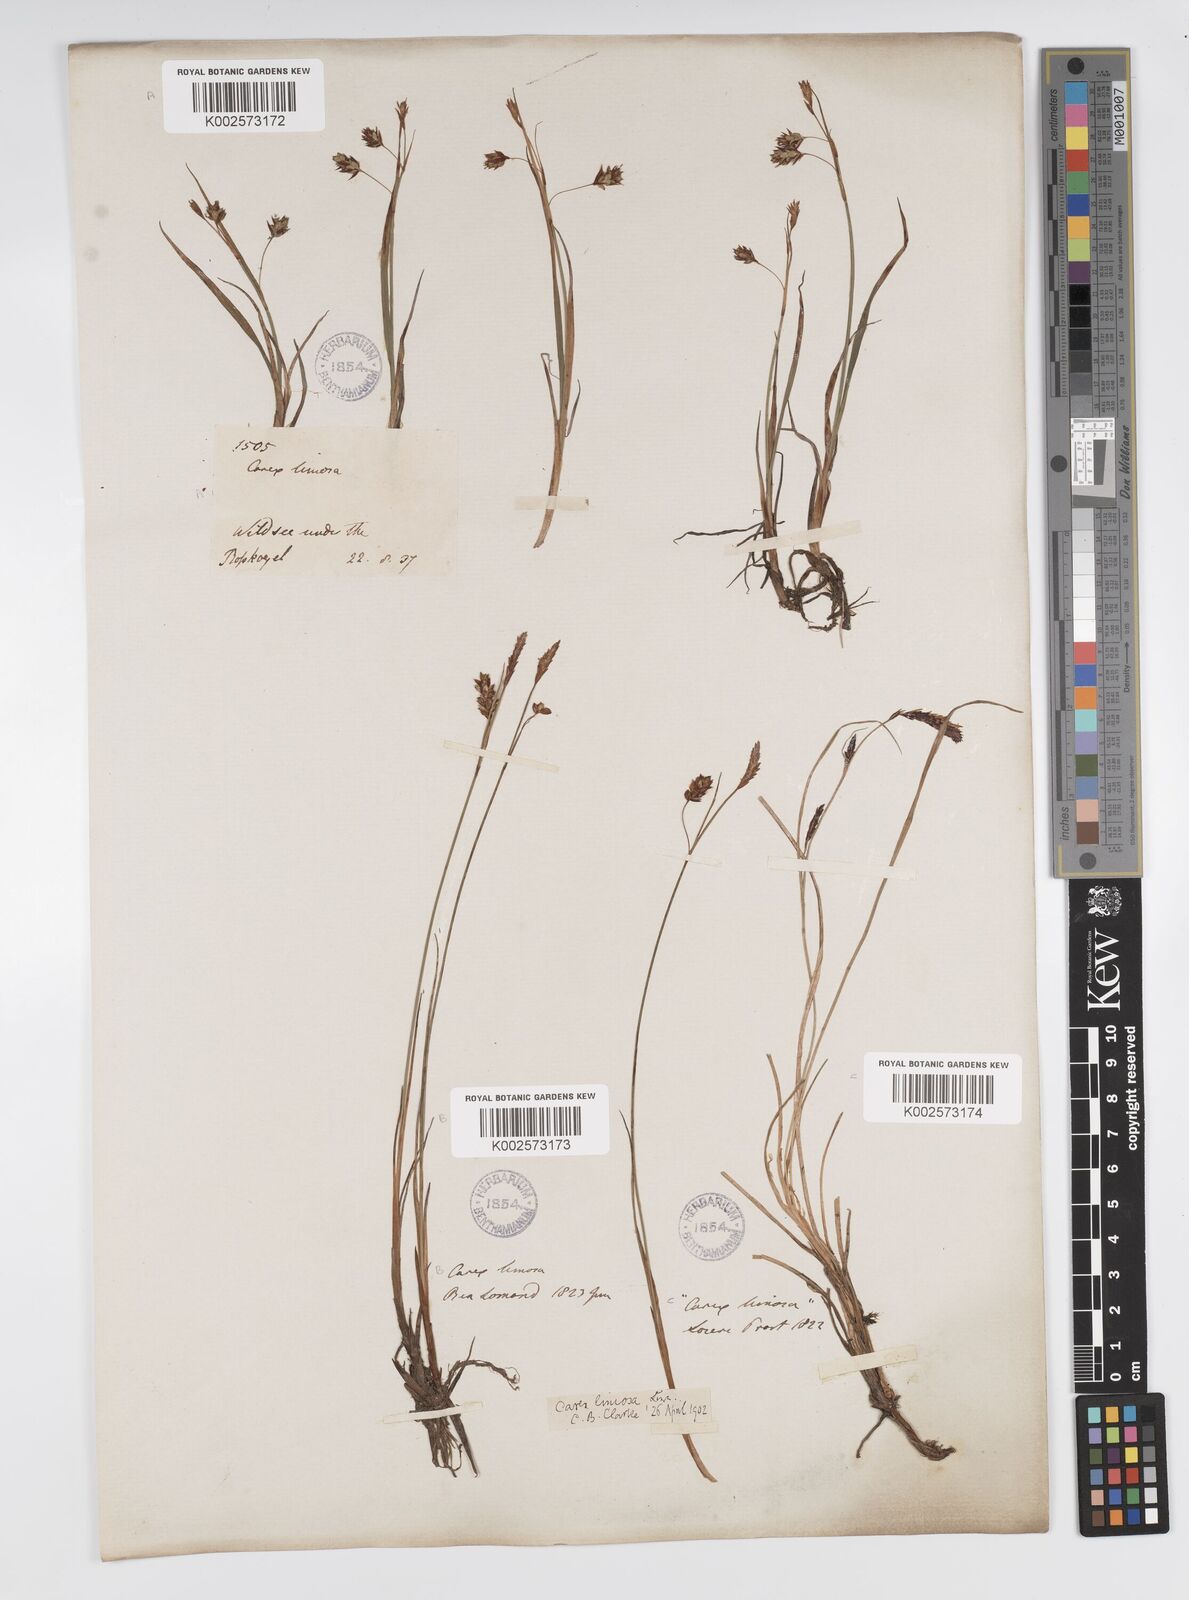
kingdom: Plantae
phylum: Tracheophyta
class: Liliopsida
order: Poales
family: Cyperaceae
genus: Carex
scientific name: Carex limosa
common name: Bog sedge
